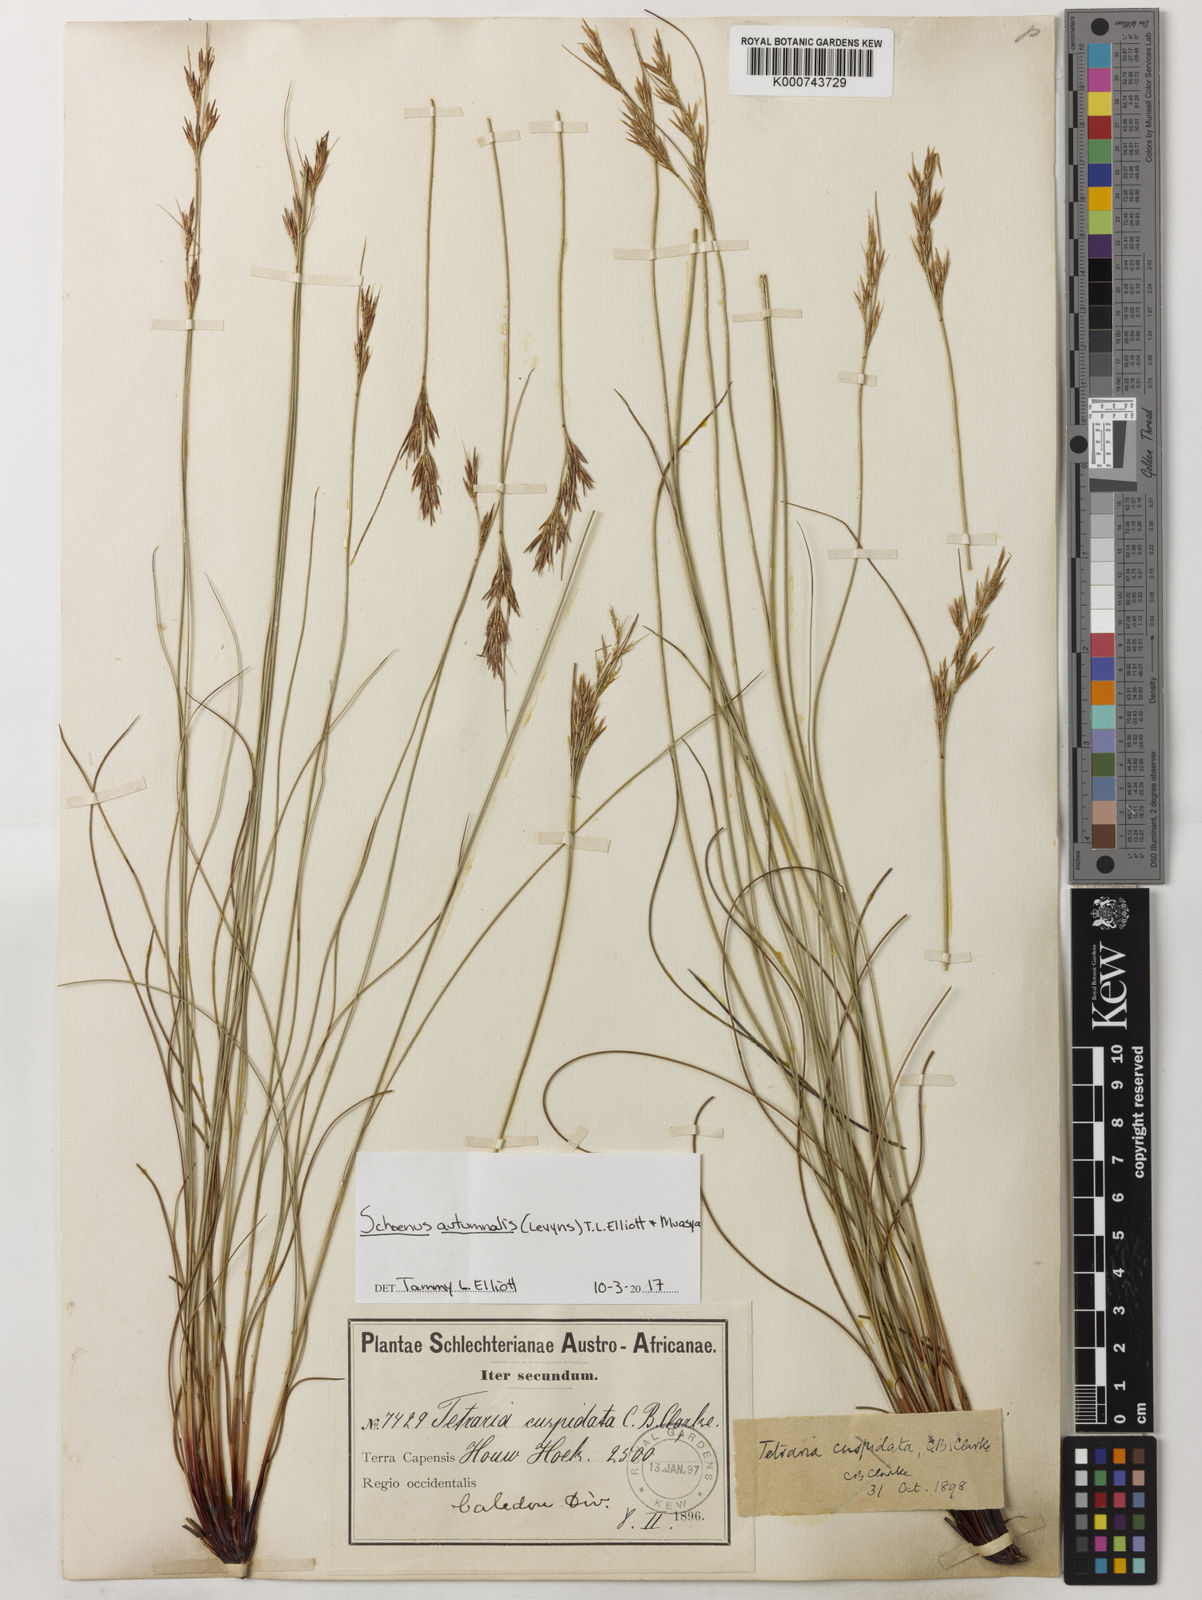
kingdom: Plantae
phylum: Tracheophyta
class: Liliopsida
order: Poales
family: Cyperaceae
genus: Schoenus
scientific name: Schoenus ligulatus
